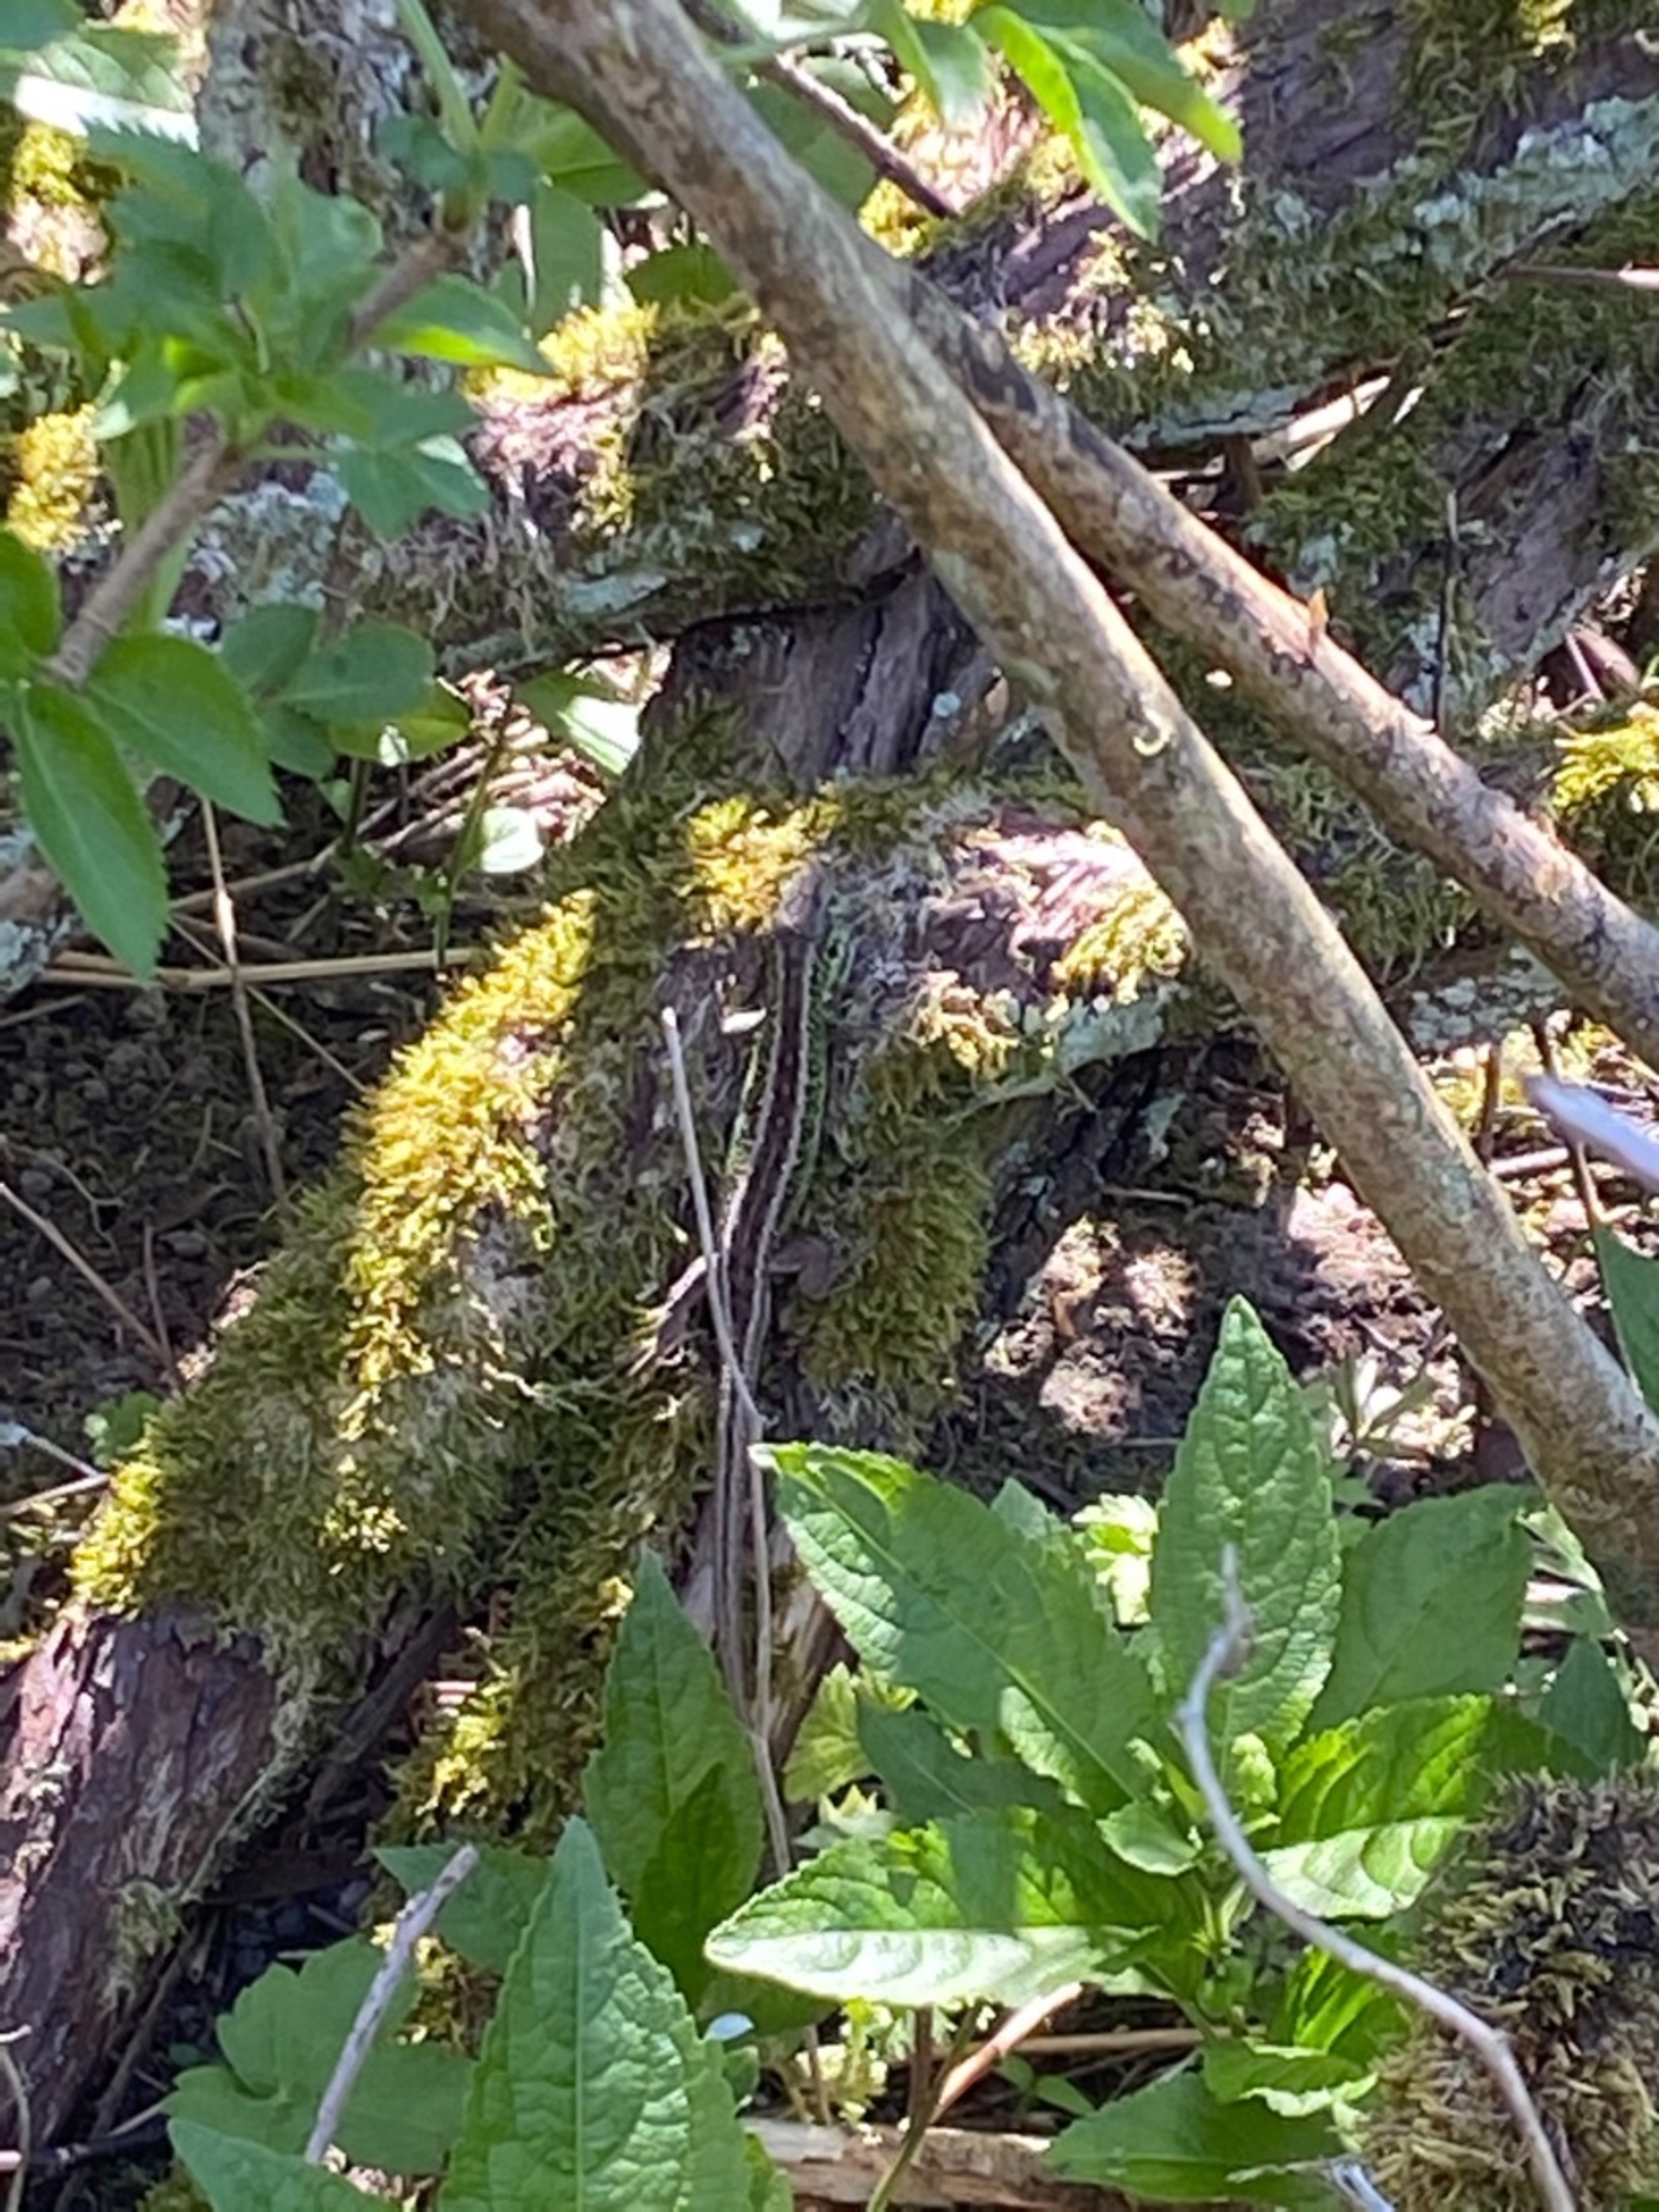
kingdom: Animalia
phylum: Chordata
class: Squamata
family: Lacertidae
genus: Lacerta
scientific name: Lacerta agilis
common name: Markfirben
